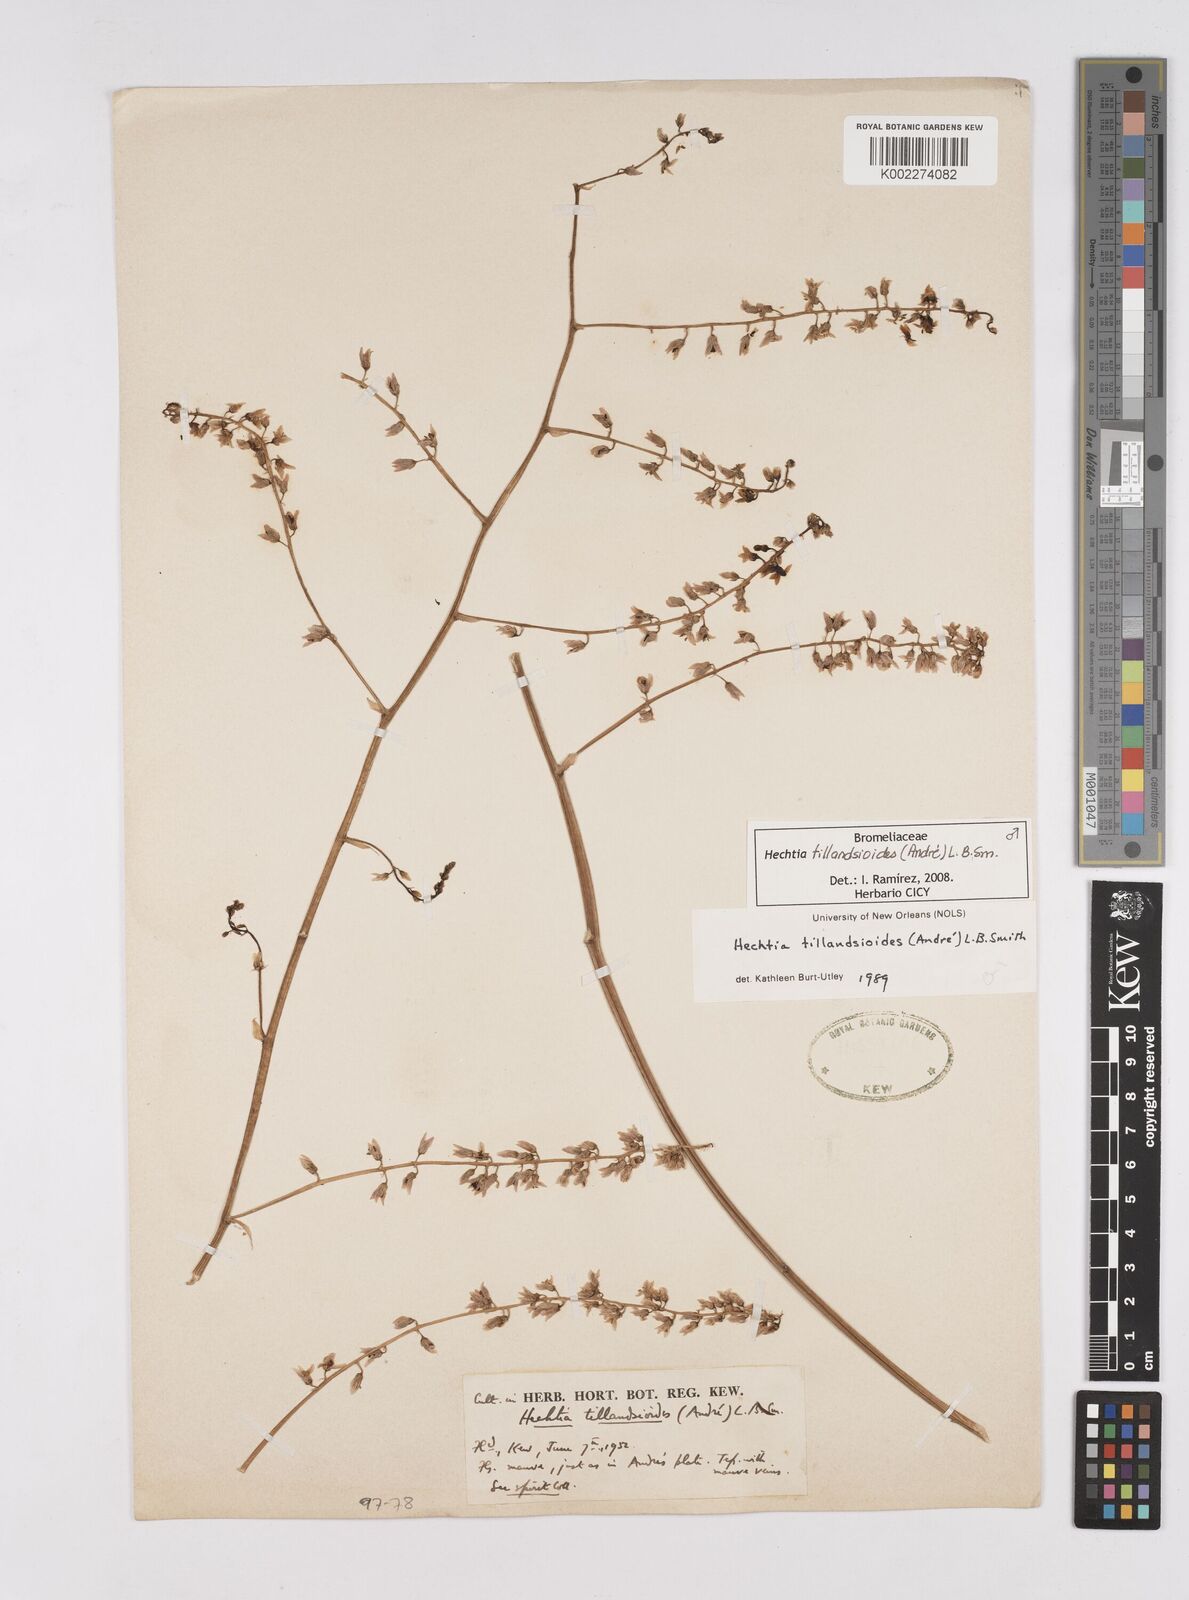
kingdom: Plantae
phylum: Tracheophyta
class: Liliopsida
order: Poales
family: Bromeliaceae
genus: Hechtia
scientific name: Hechtia tillandsioides
